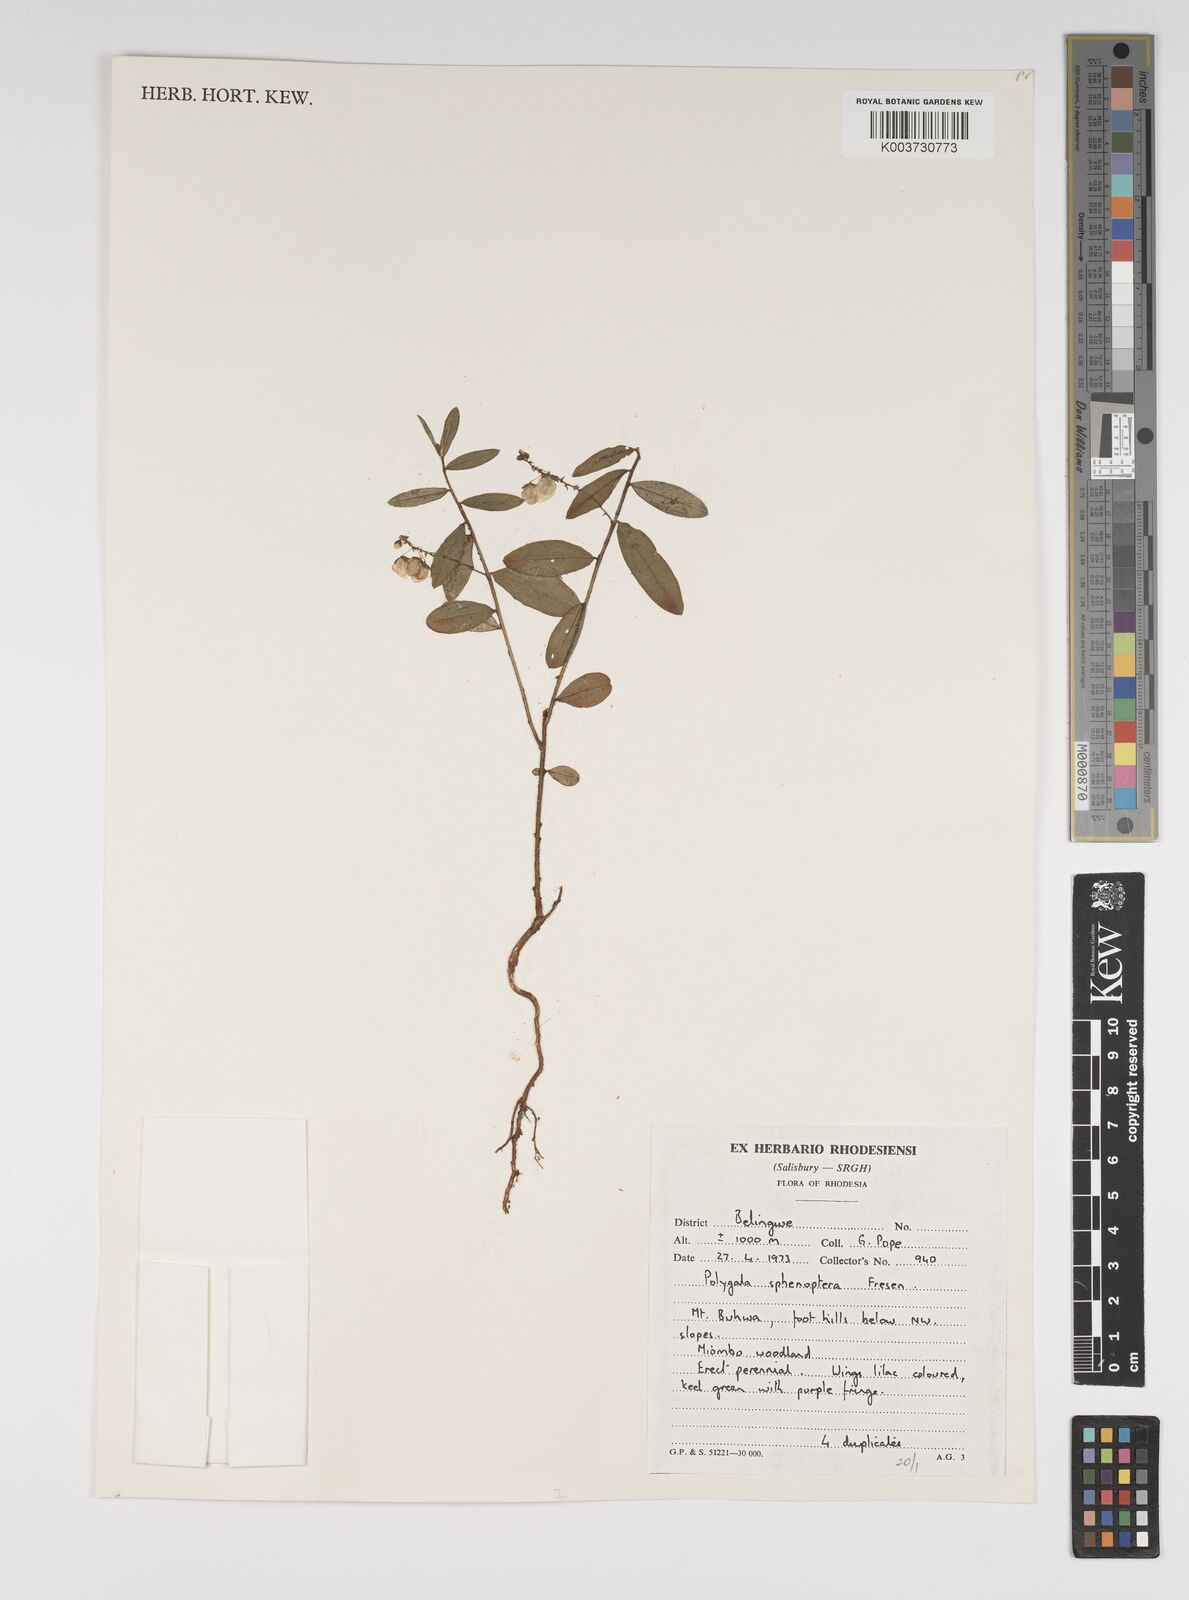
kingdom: Plantae
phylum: Tracheophyta
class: Magnoliopsida
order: Fabales
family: Polygalaceae
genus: Polygala
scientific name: Polygala sphenoptera
